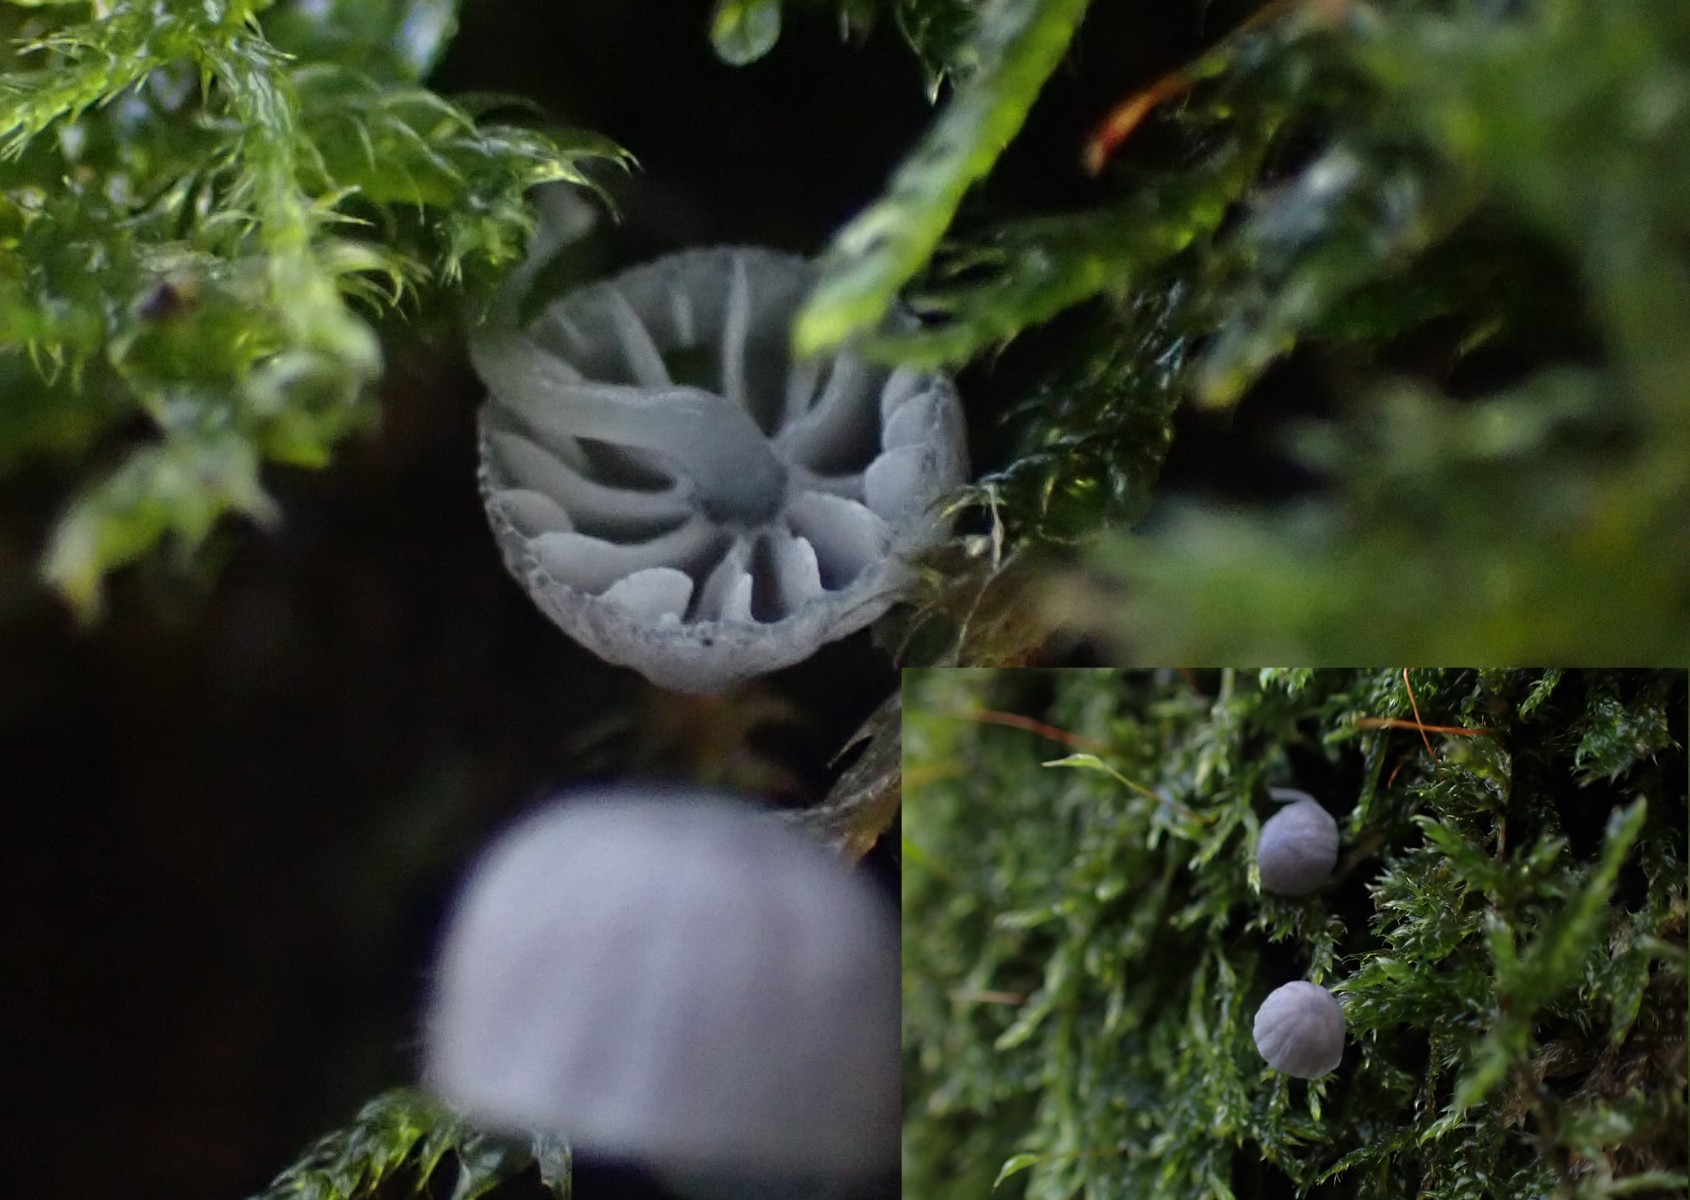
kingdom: Fungi
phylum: Basidiomycota
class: Agaricomycetes
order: Agaricales
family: Mycenaceae
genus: Mycena
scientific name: Mycena pseudocorticola
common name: gråblå bark-huesvamp
